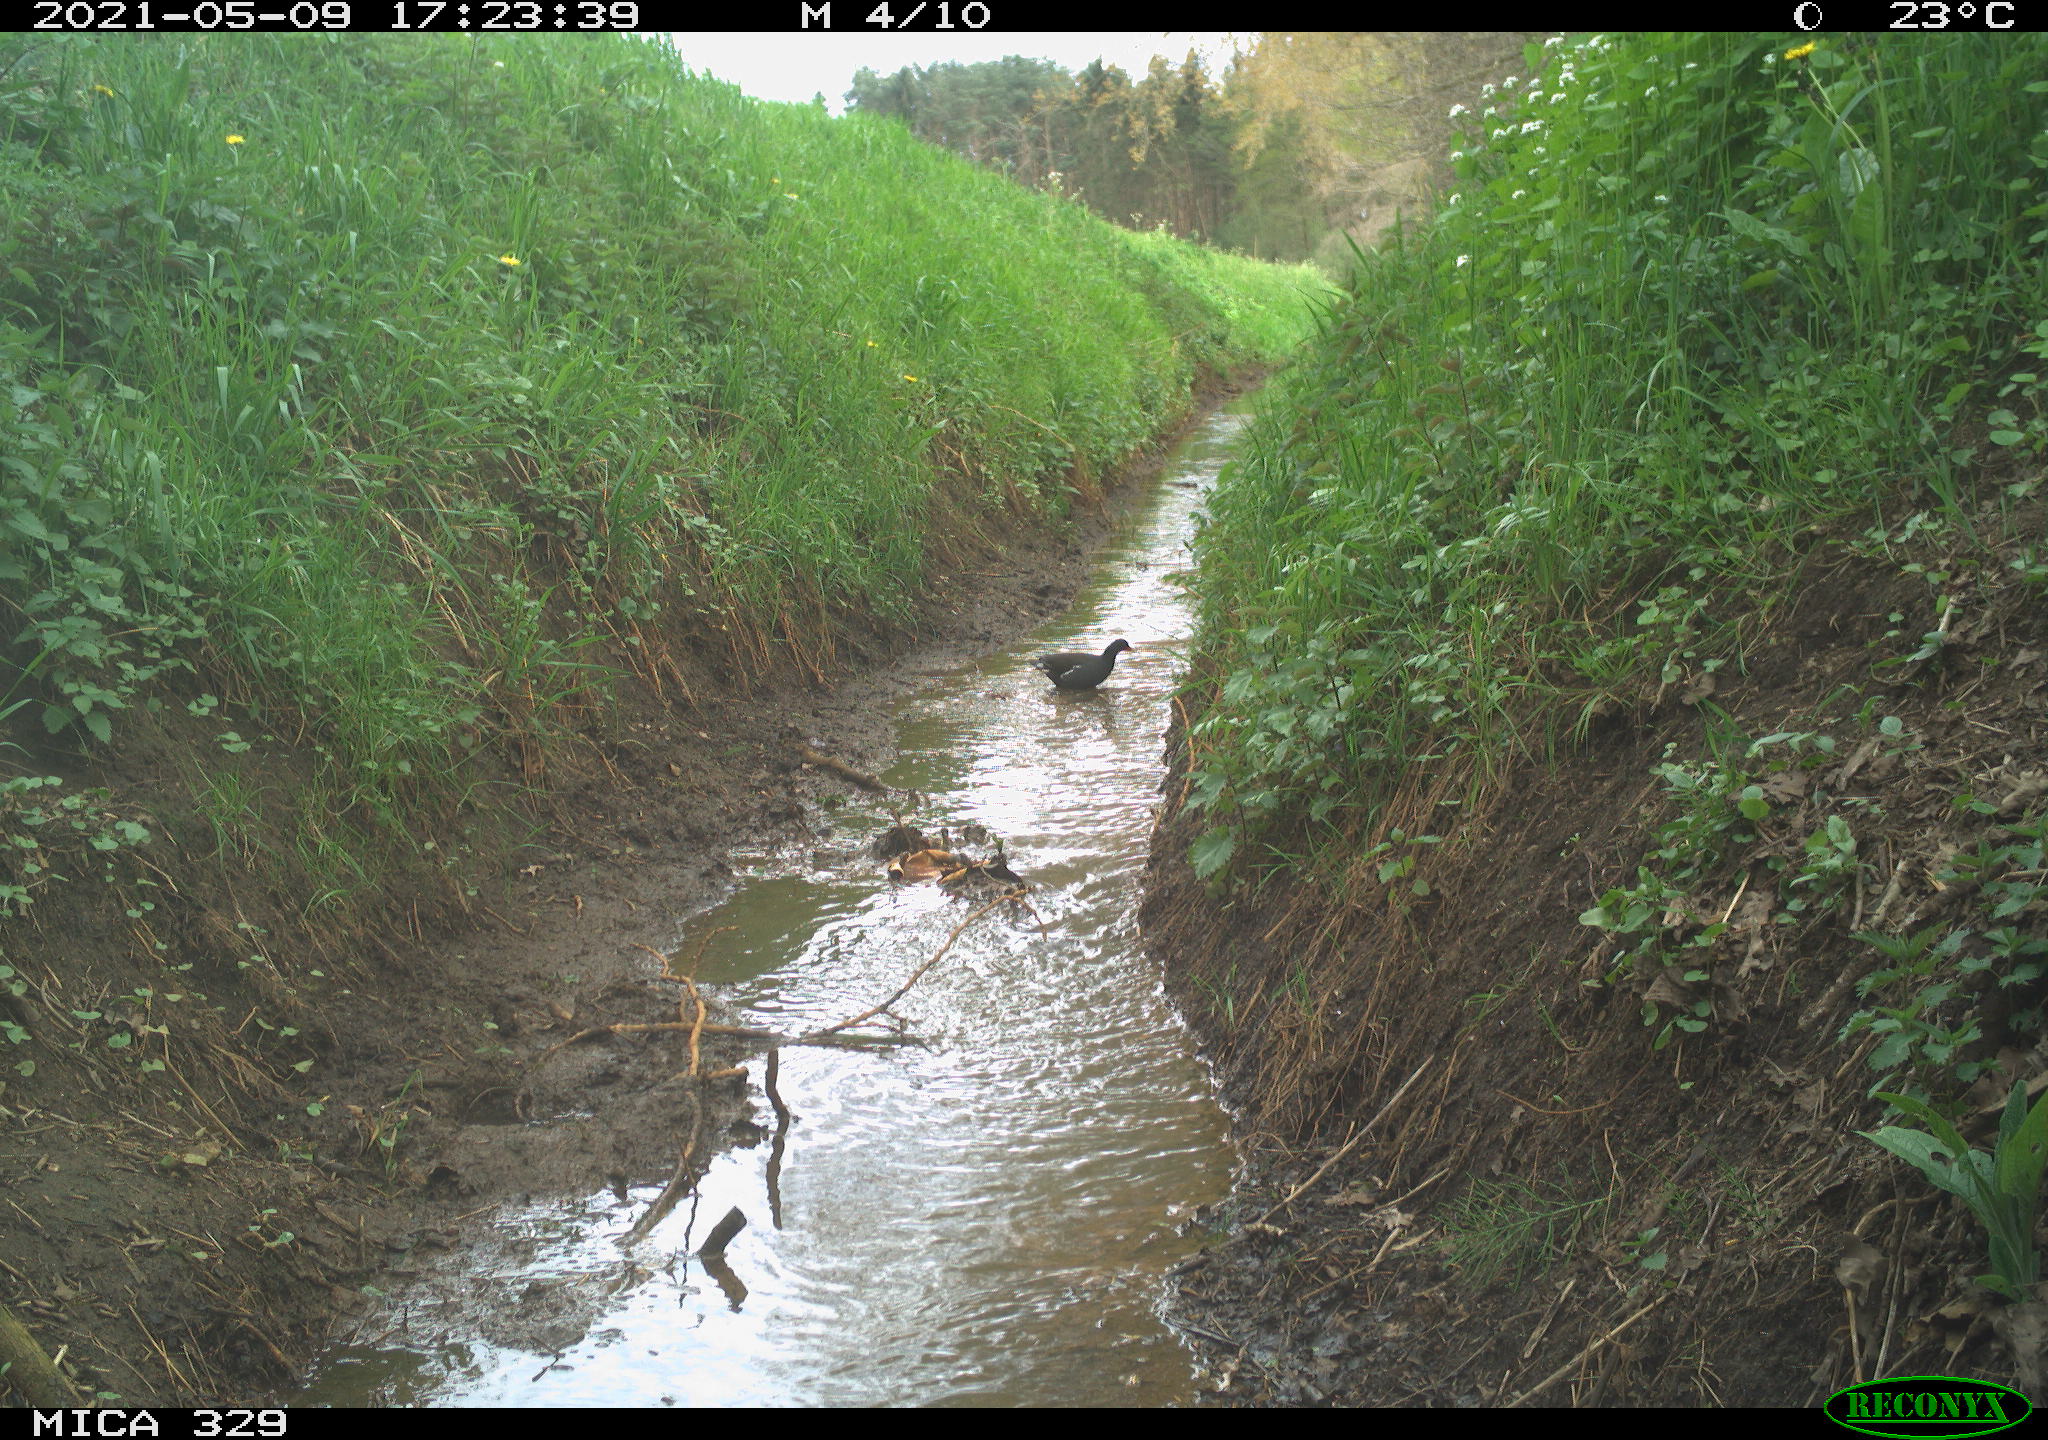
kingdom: Animalia
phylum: Chordata
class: Aves
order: Gruiformes
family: Rallidae
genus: Gallinula
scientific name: Gallinula chloropus
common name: Common moorhen
